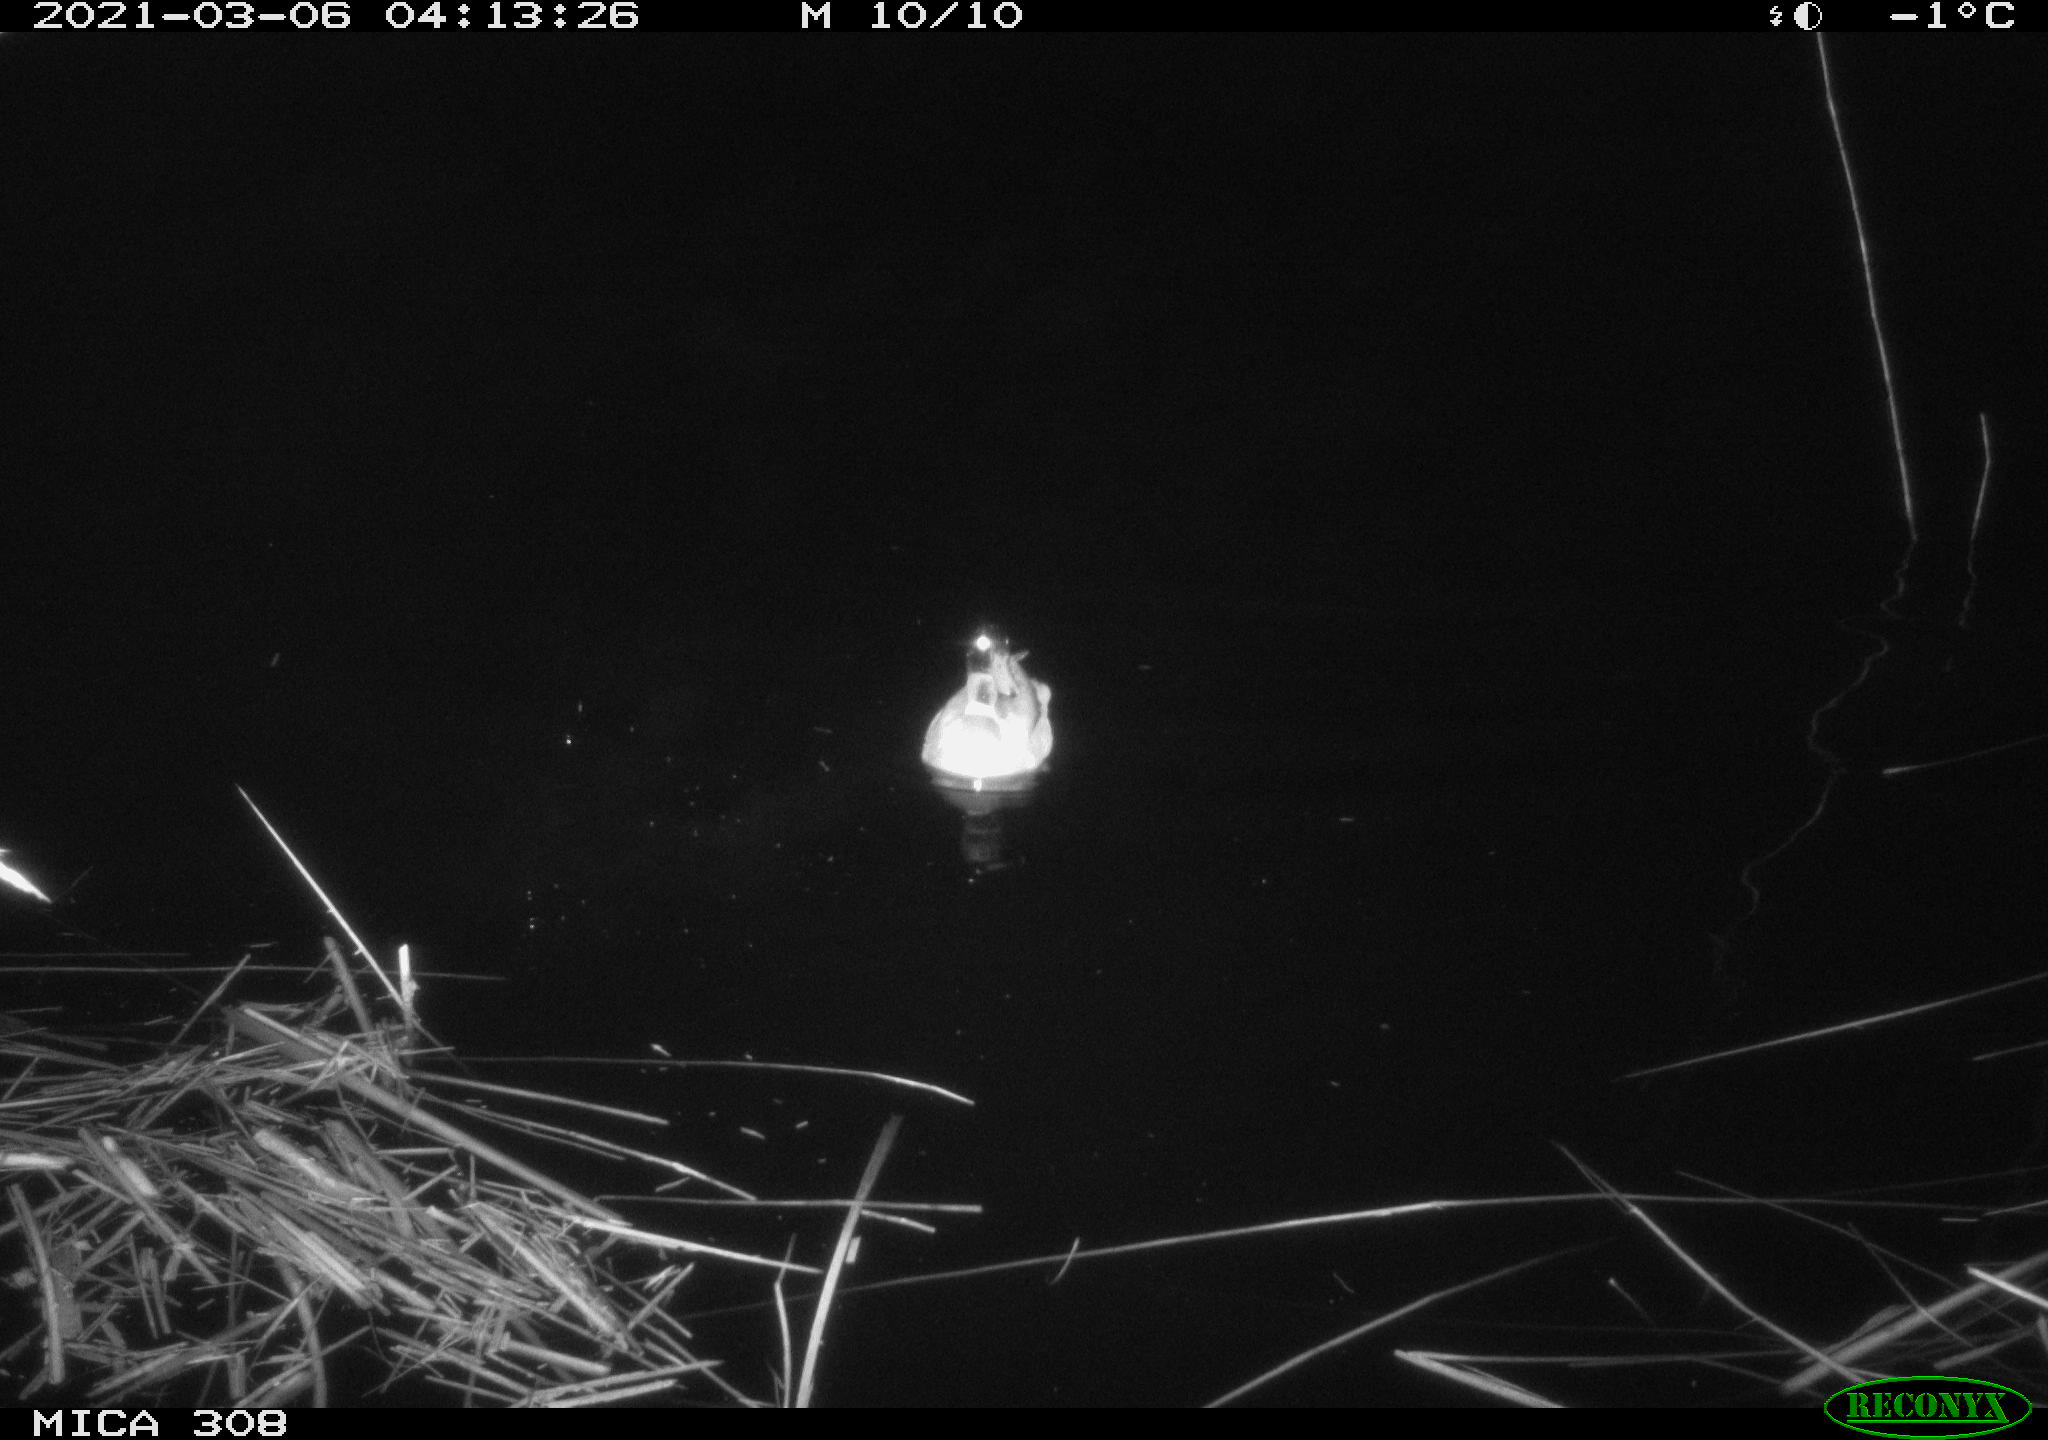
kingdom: Animalia
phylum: Chordata
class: Aves
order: Anseriformes
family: Anatidae
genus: Anas
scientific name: Anas platyrhynchos
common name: Mallard
